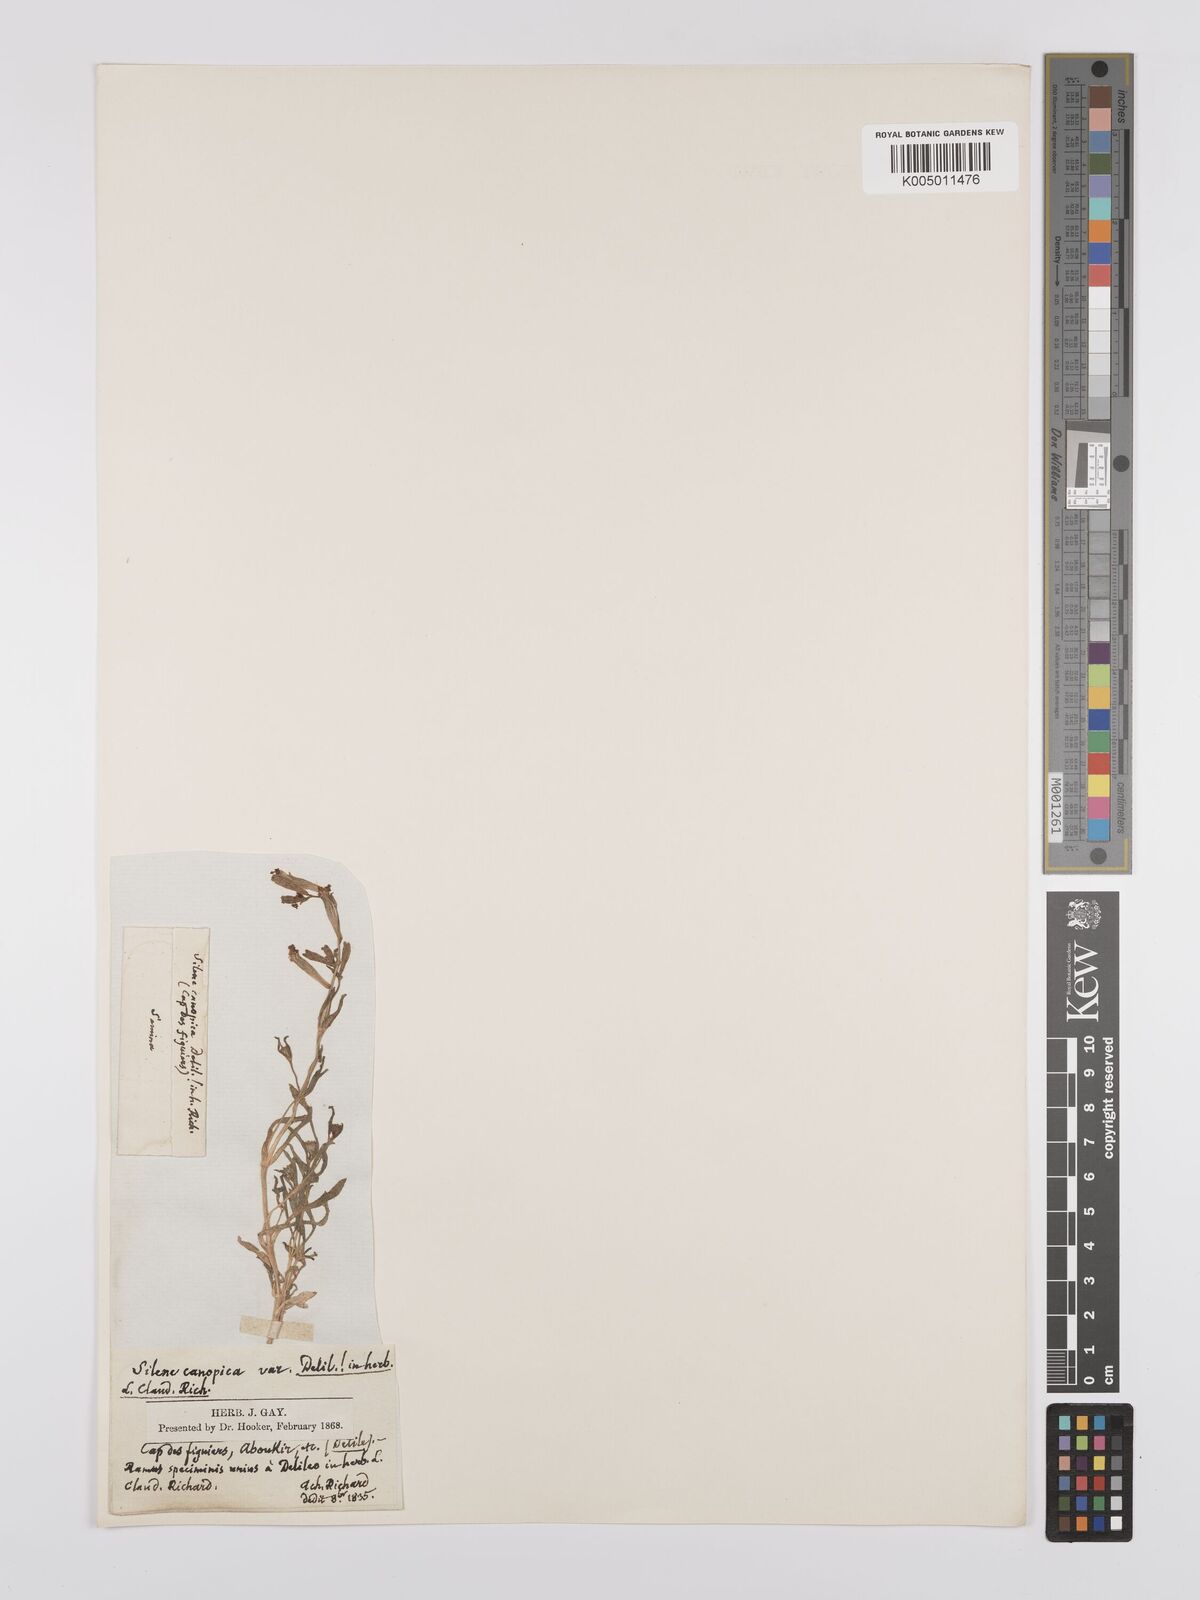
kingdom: Plantae
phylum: Tracheophyta
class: Magnoliopsida
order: Caryophyllales
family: Caryophyllaceae
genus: Silene
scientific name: Silene biappendiculata
